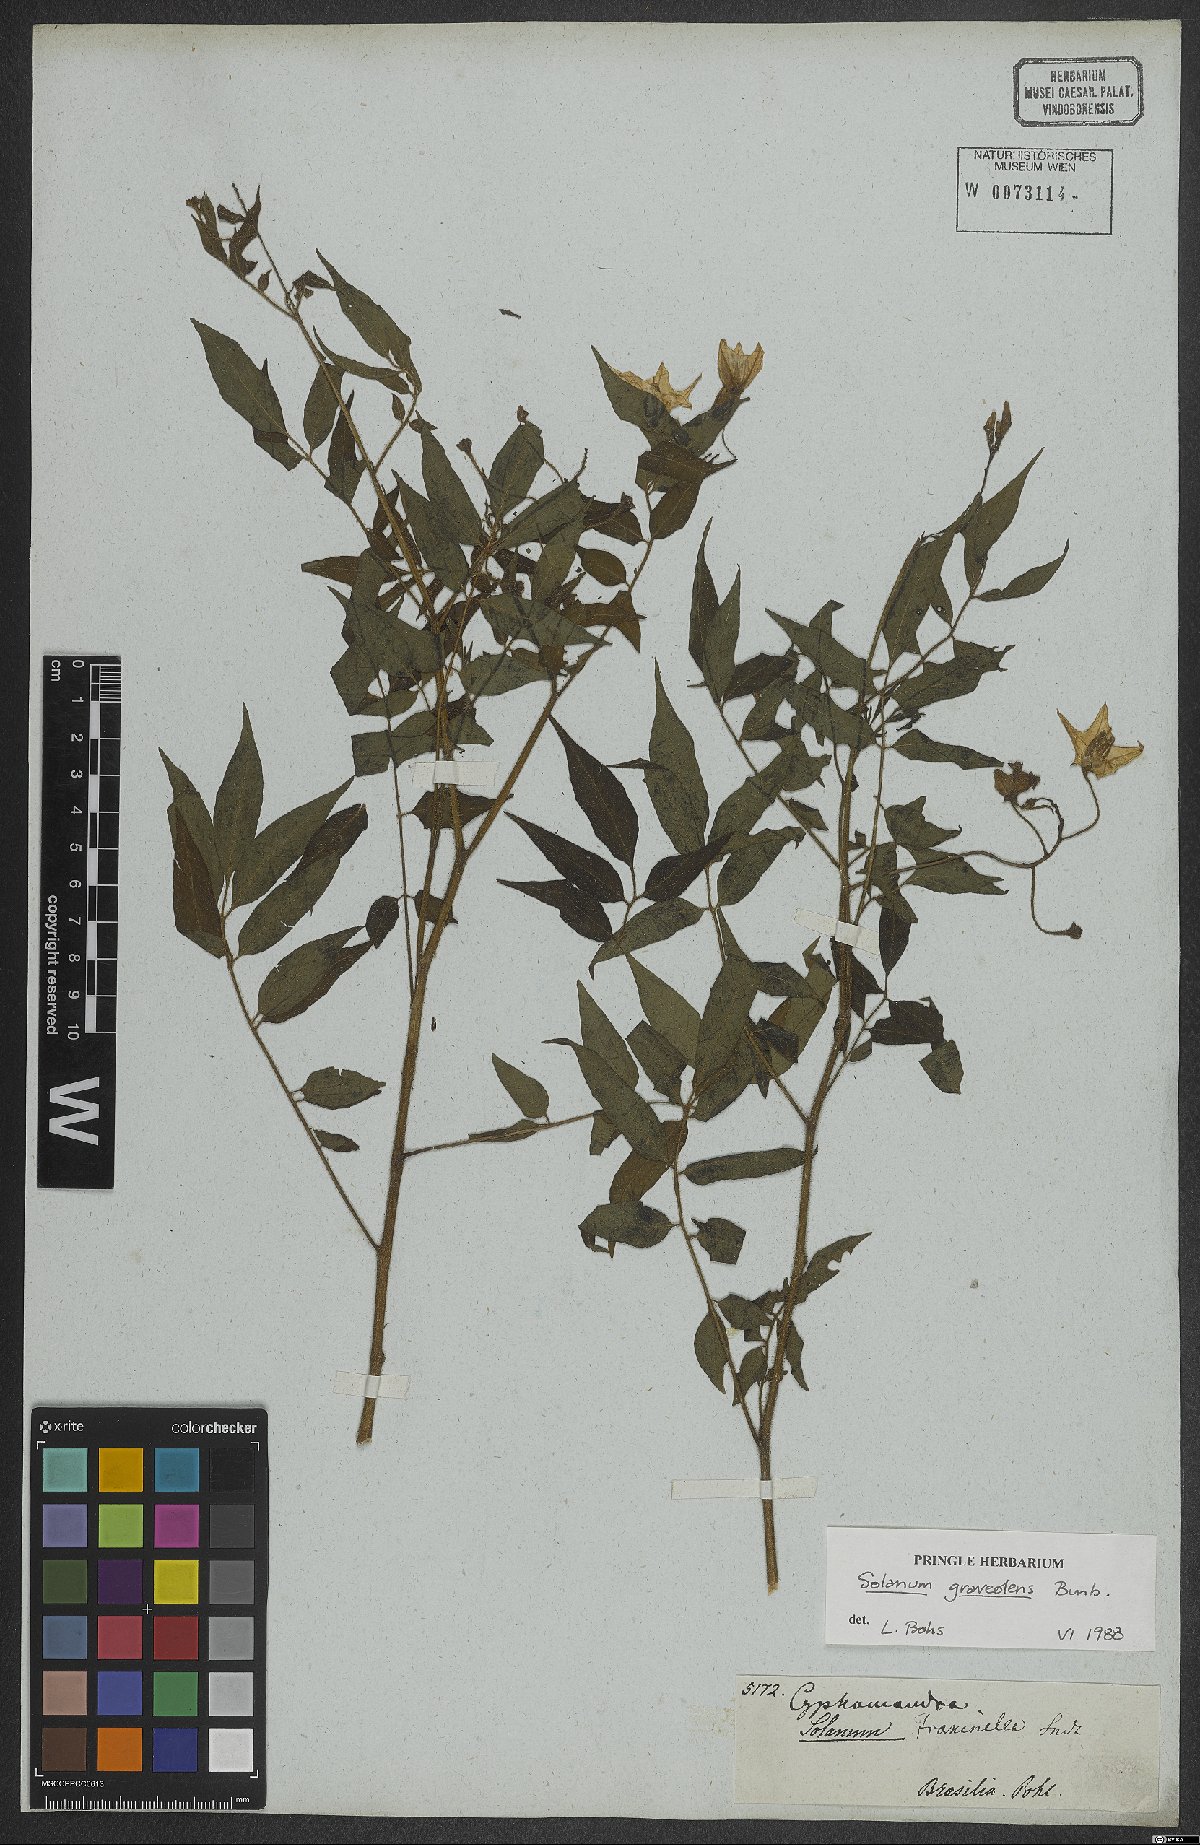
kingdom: Plantae
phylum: Tracheophyta
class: Magnoliopsida
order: Solanales
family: Solanaceae
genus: Solanum
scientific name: Solanum graveolens
